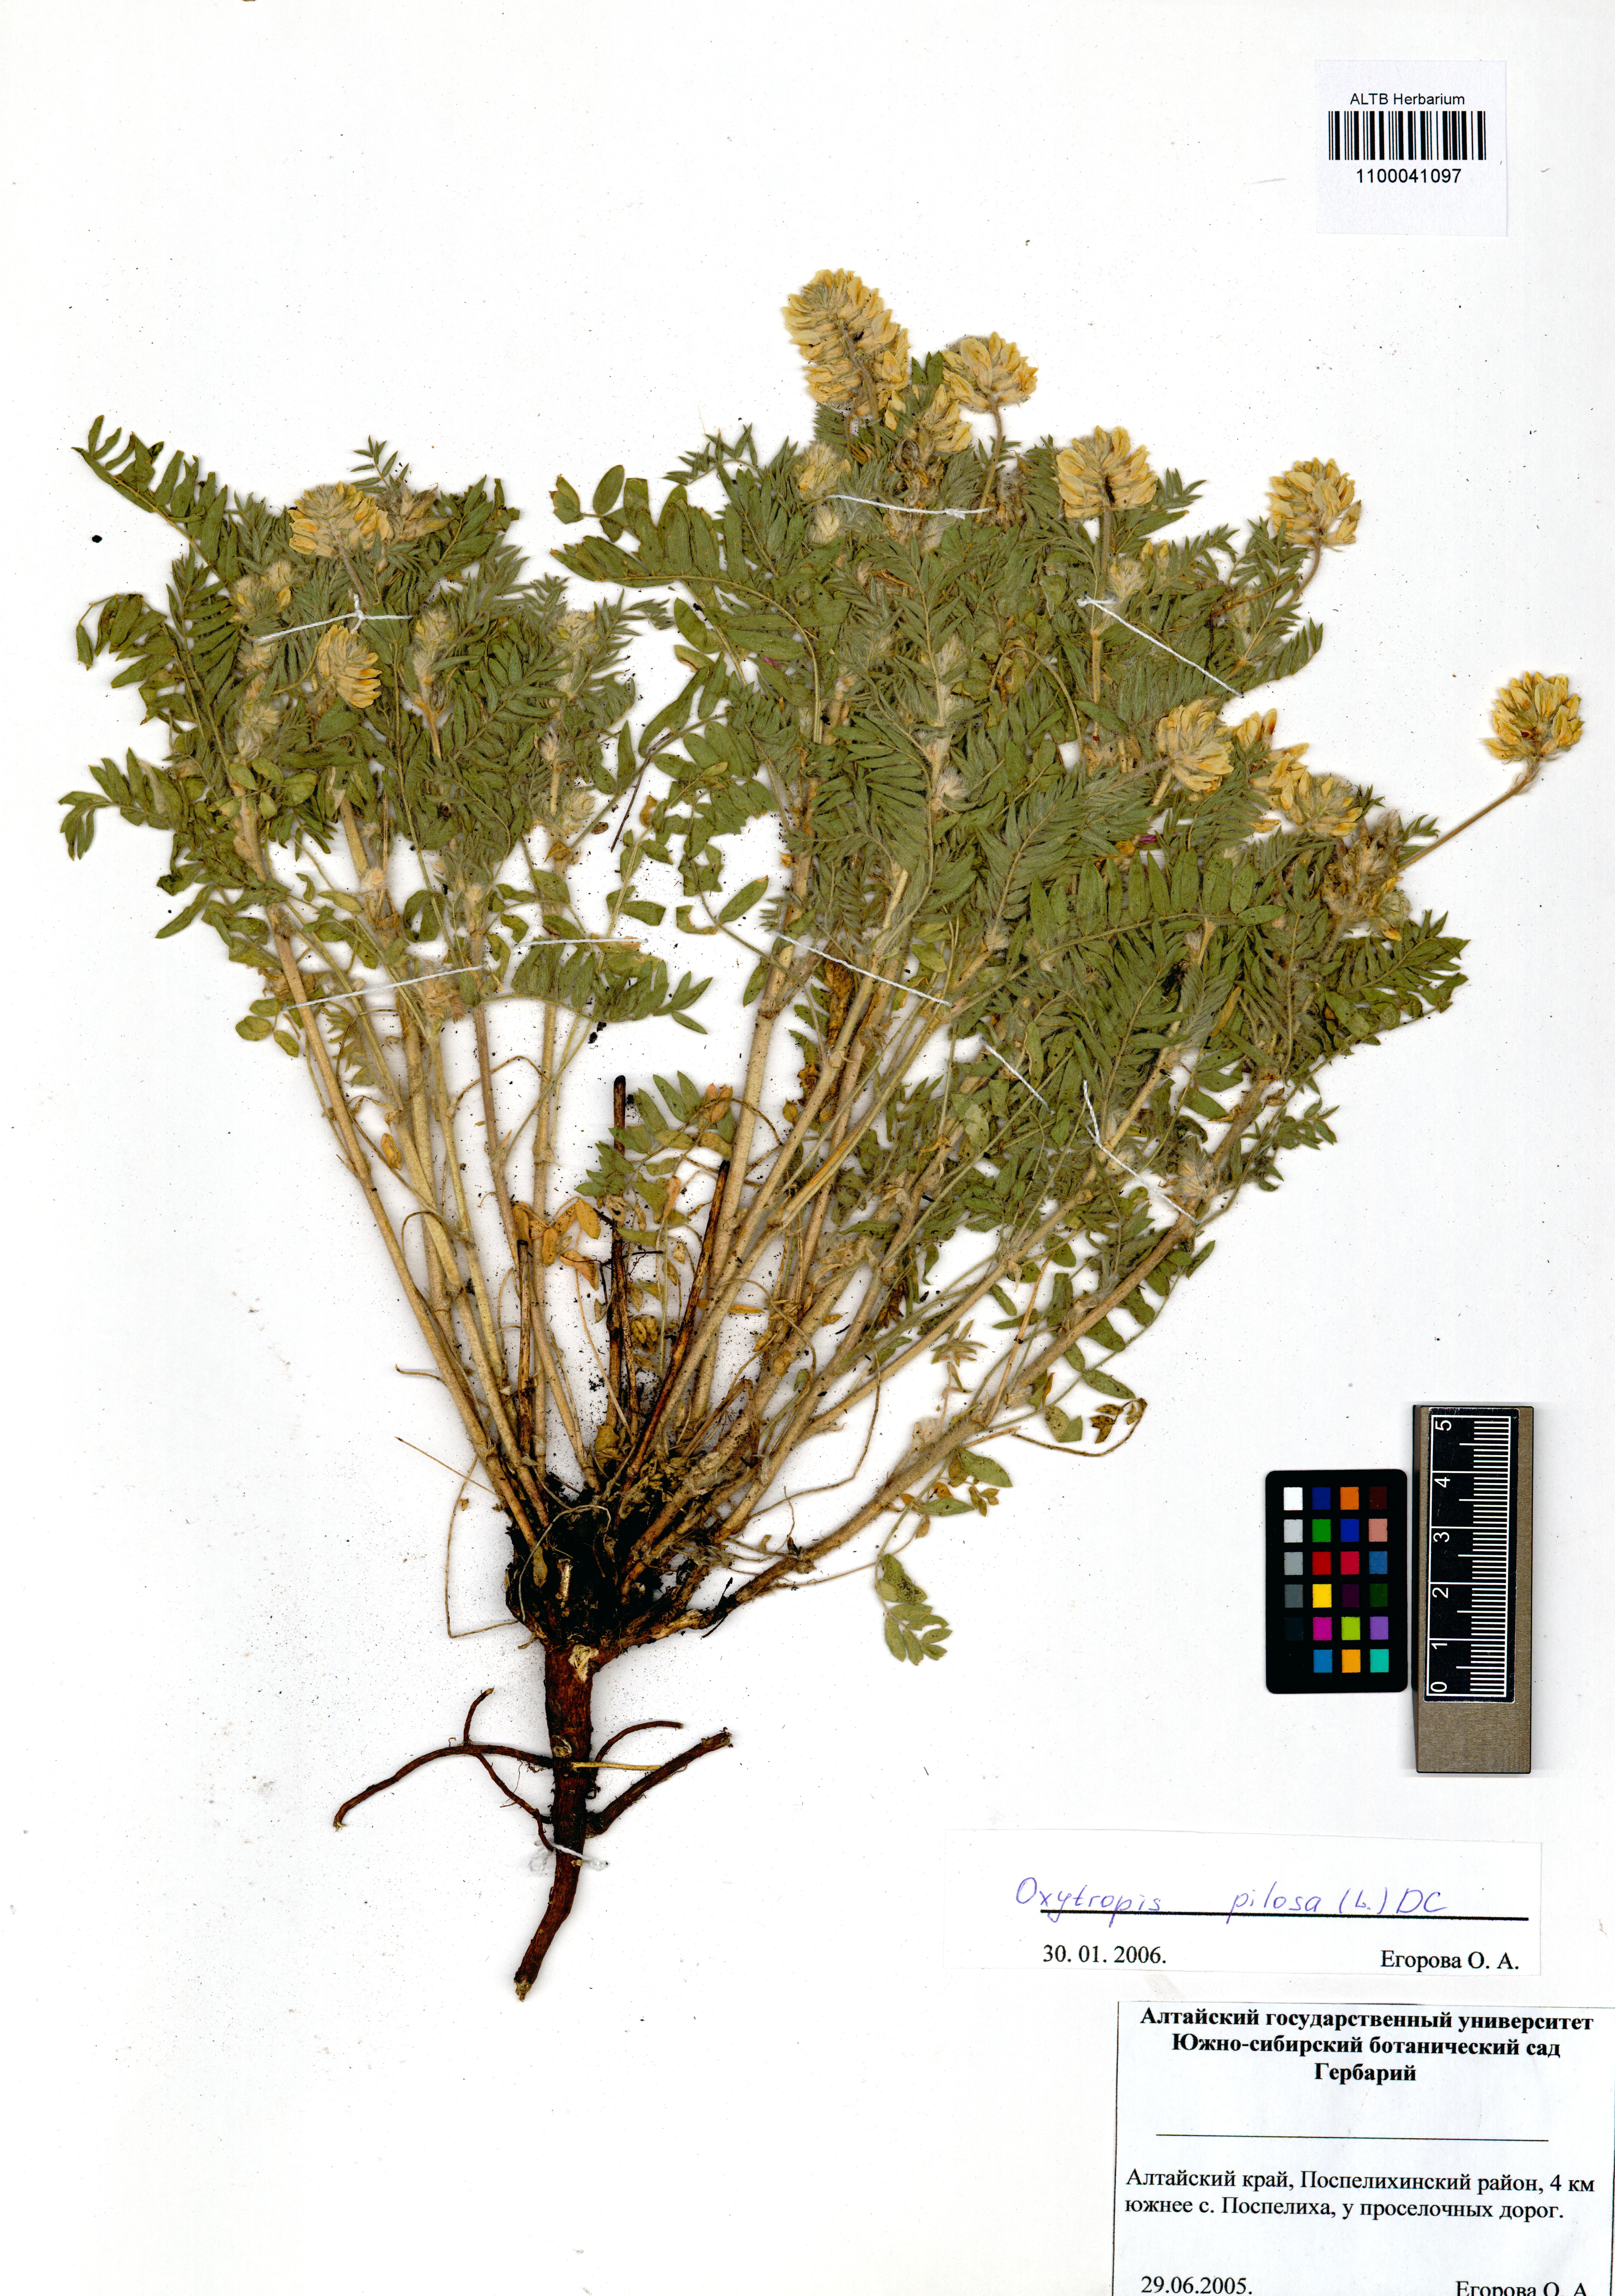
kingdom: Plantae
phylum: Tracheophyta
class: Magnoliopsida
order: Fabales
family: Fabaceae
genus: Oxytropis
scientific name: Oxytropis pilosa
